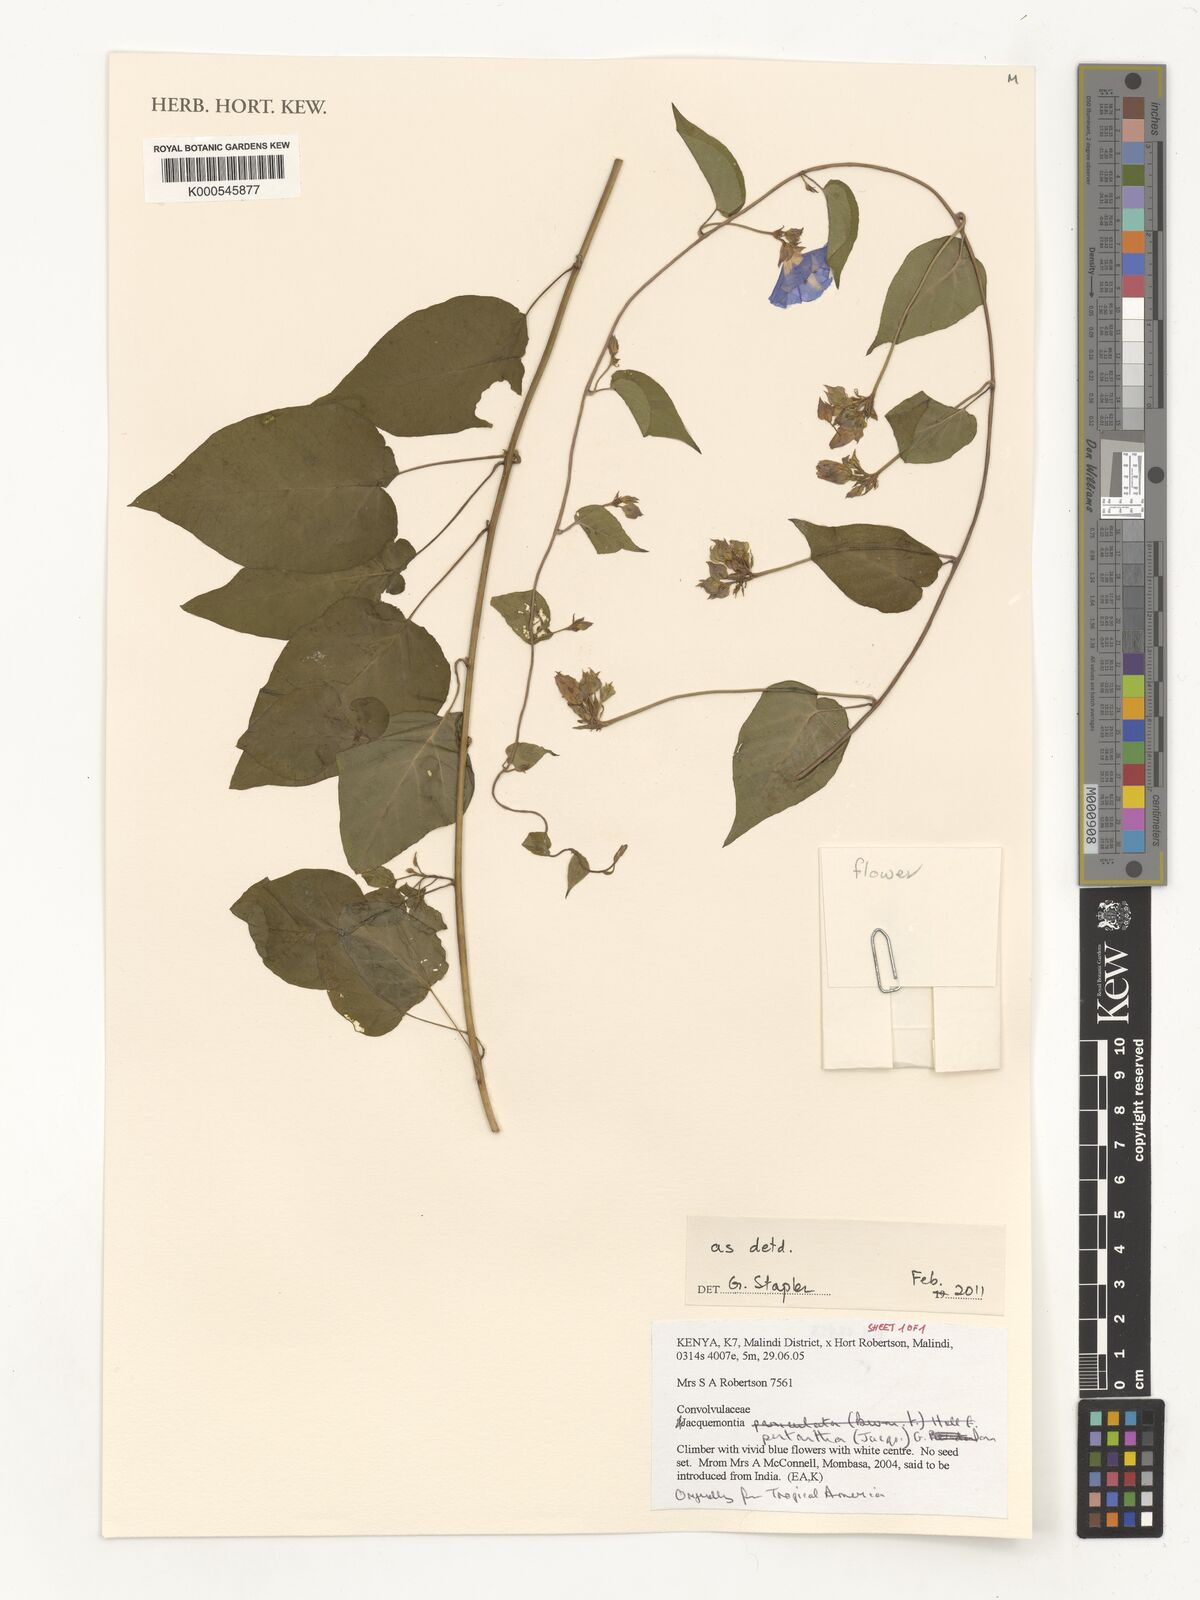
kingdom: Plantae
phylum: Tracheophyta
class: Magnoliopsida
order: Solanales
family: Convolvulaceae
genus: Jacquemontia
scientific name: Jacquemontia
